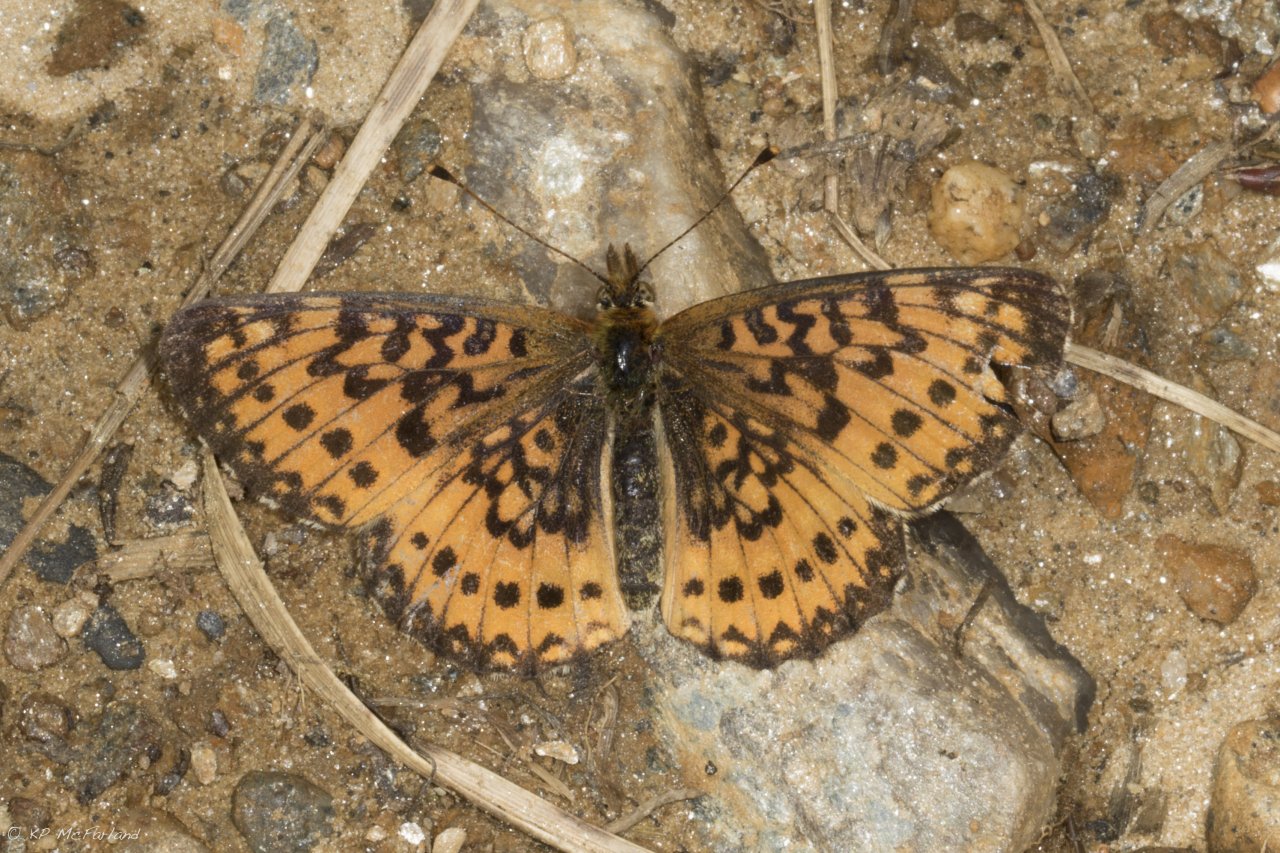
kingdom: Animalia
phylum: Arthropoda
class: Insecta
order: Lepidoptera
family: Nymphalidae
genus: Boloria
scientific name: Boloria selene
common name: Silver-bordered Fritillary
